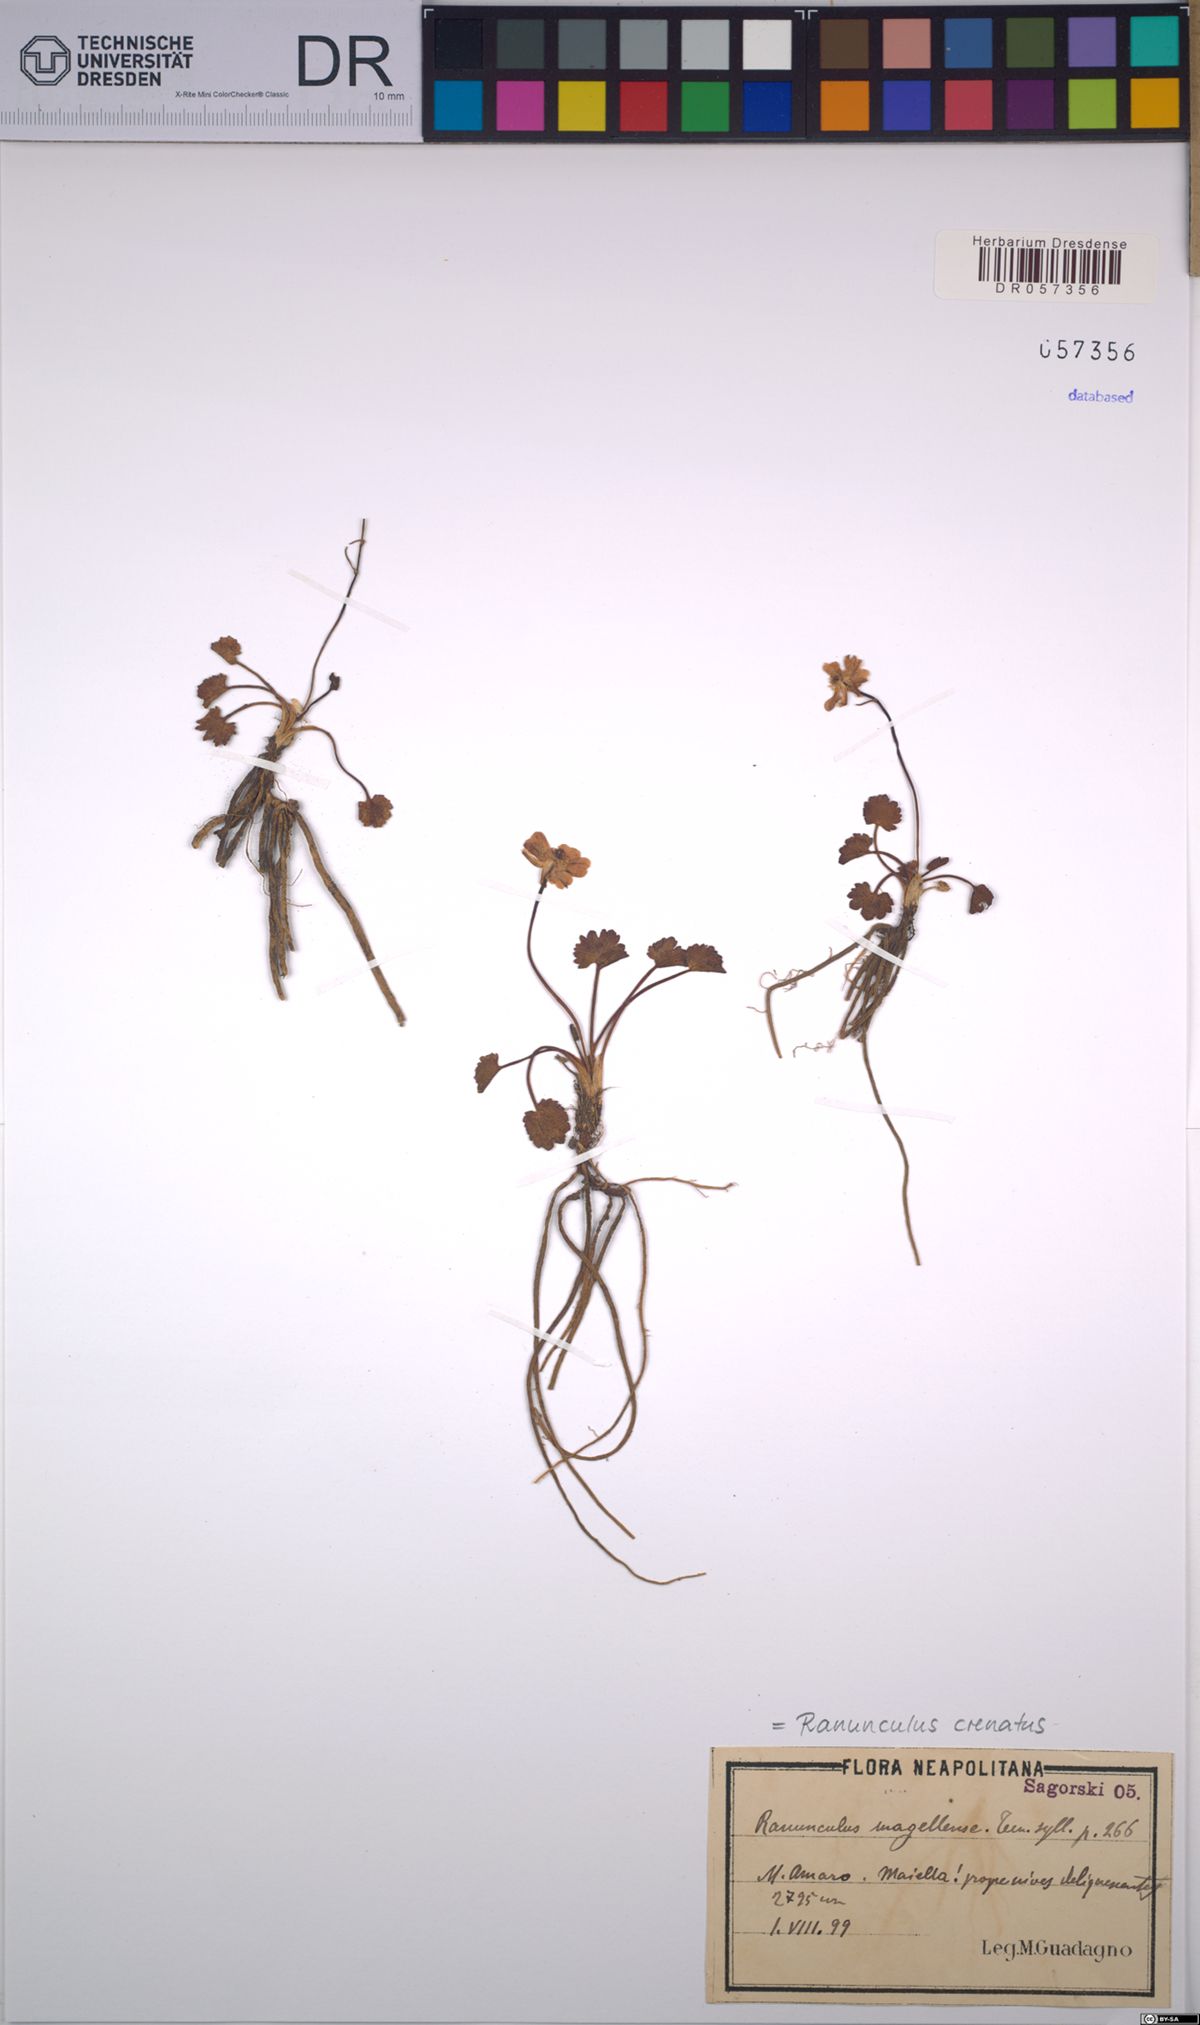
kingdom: Plantae
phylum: Tracheophyta
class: Magnoliopsida
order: Ranunculales
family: Ranunculaceae
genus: Ranunculus
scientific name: Ranunculus crenatus
